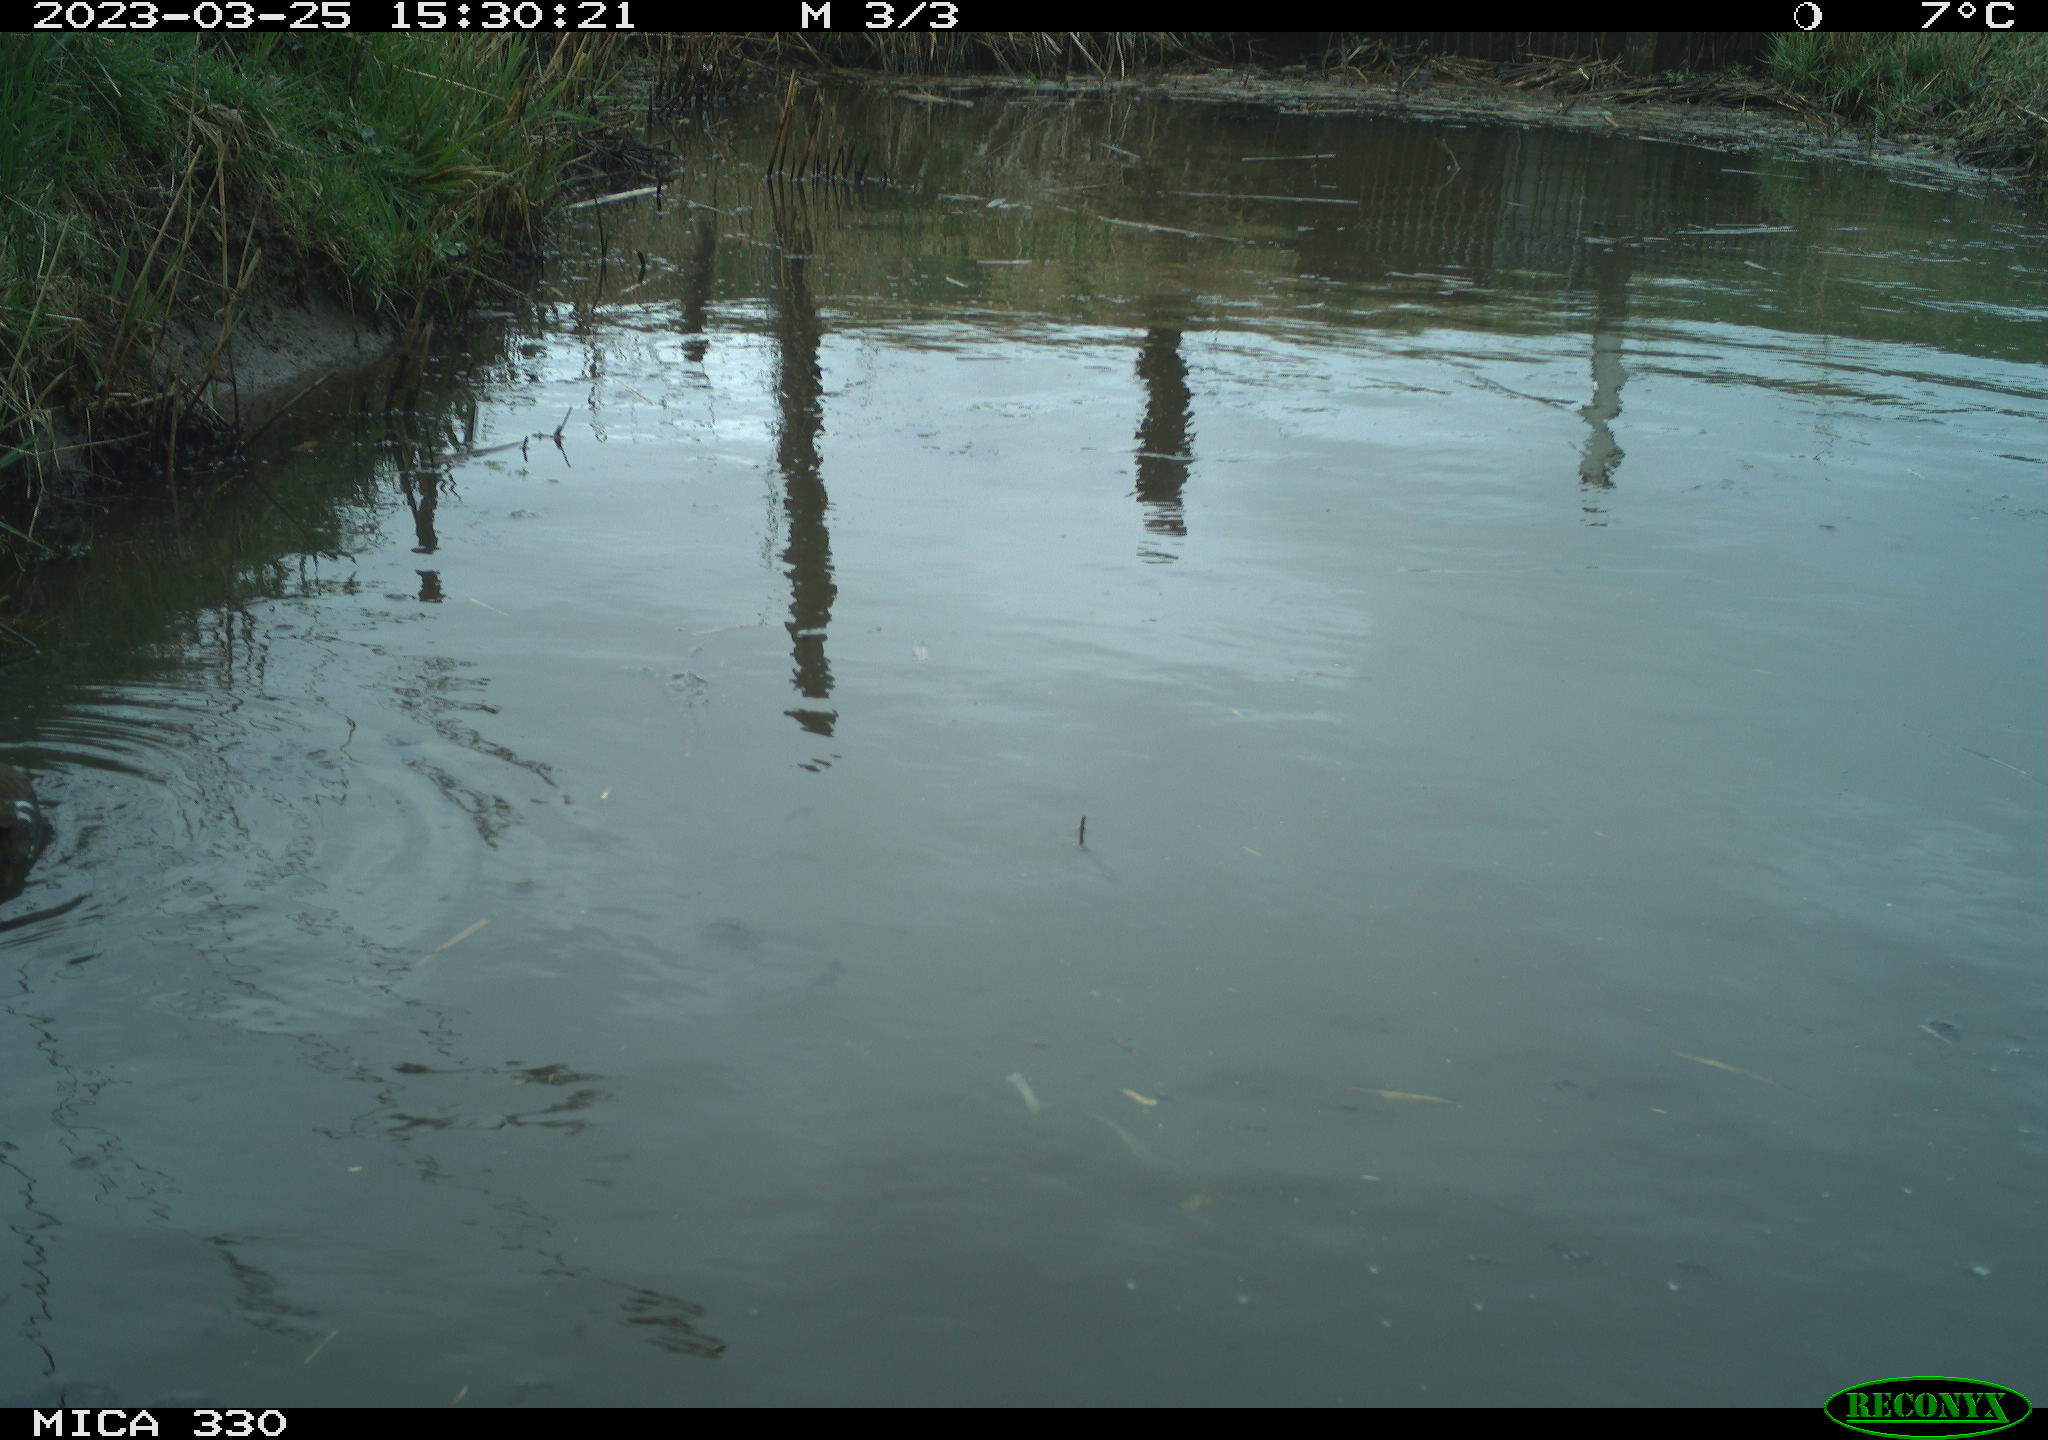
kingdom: Animalia
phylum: Chordata
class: Aves
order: Gruiformes
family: Rallidae
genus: Gallinula
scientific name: Gallinula chloropus
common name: Common moorhen
